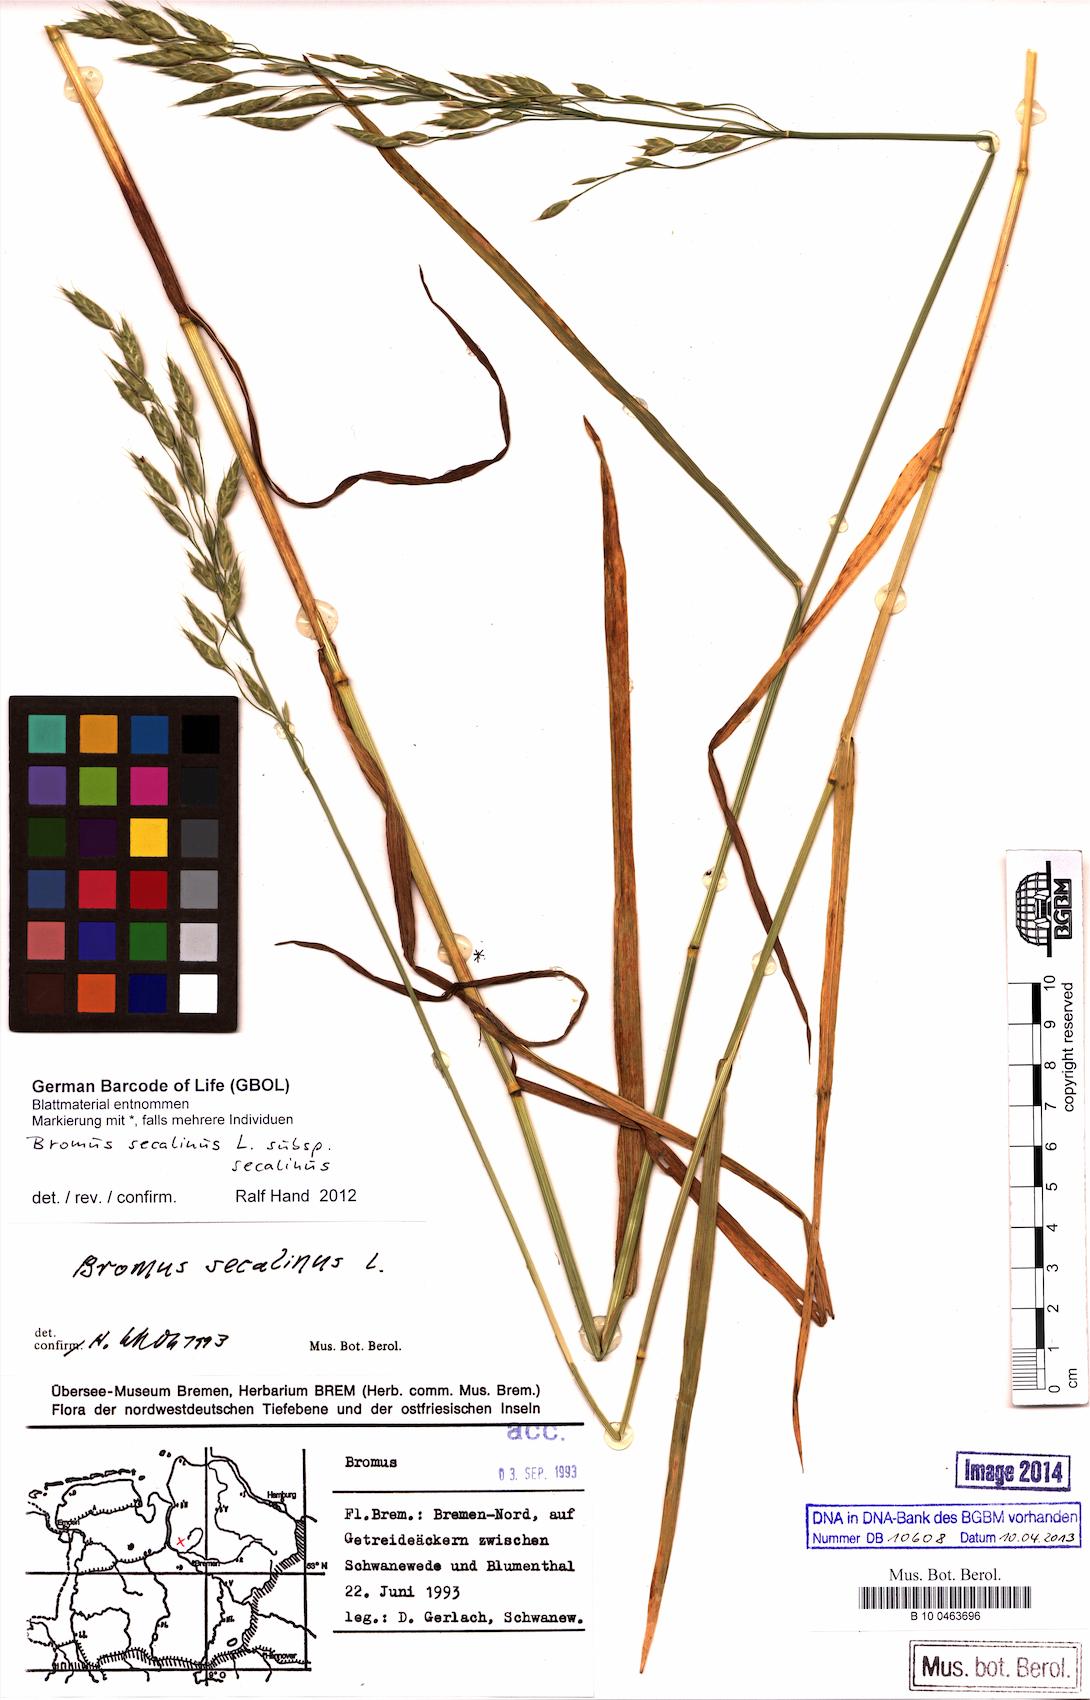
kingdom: Plantae
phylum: Tracheophyta
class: Liliopsida
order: Poales
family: Poaceae
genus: Bromus
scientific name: Bromus secalinus
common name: Rye brome
